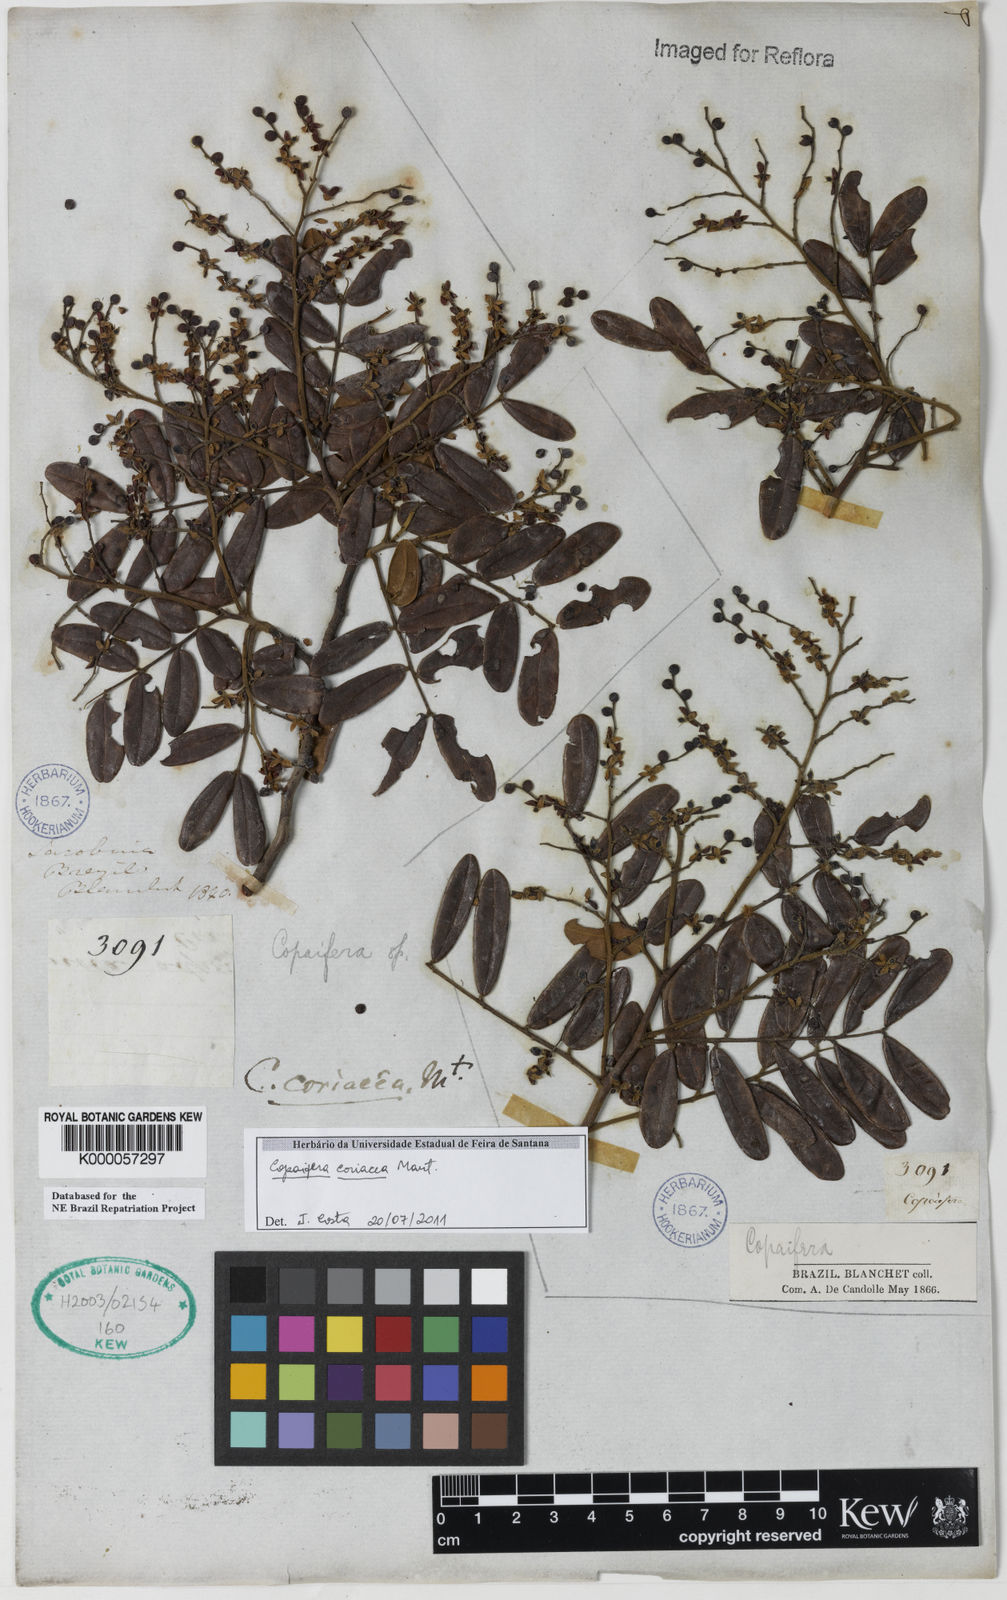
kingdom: Plantae
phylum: Tracheophyta
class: Magnoliopsida
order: Fabales
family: Fabaceae
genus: Copaifera
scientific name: Copaifera coriacea
